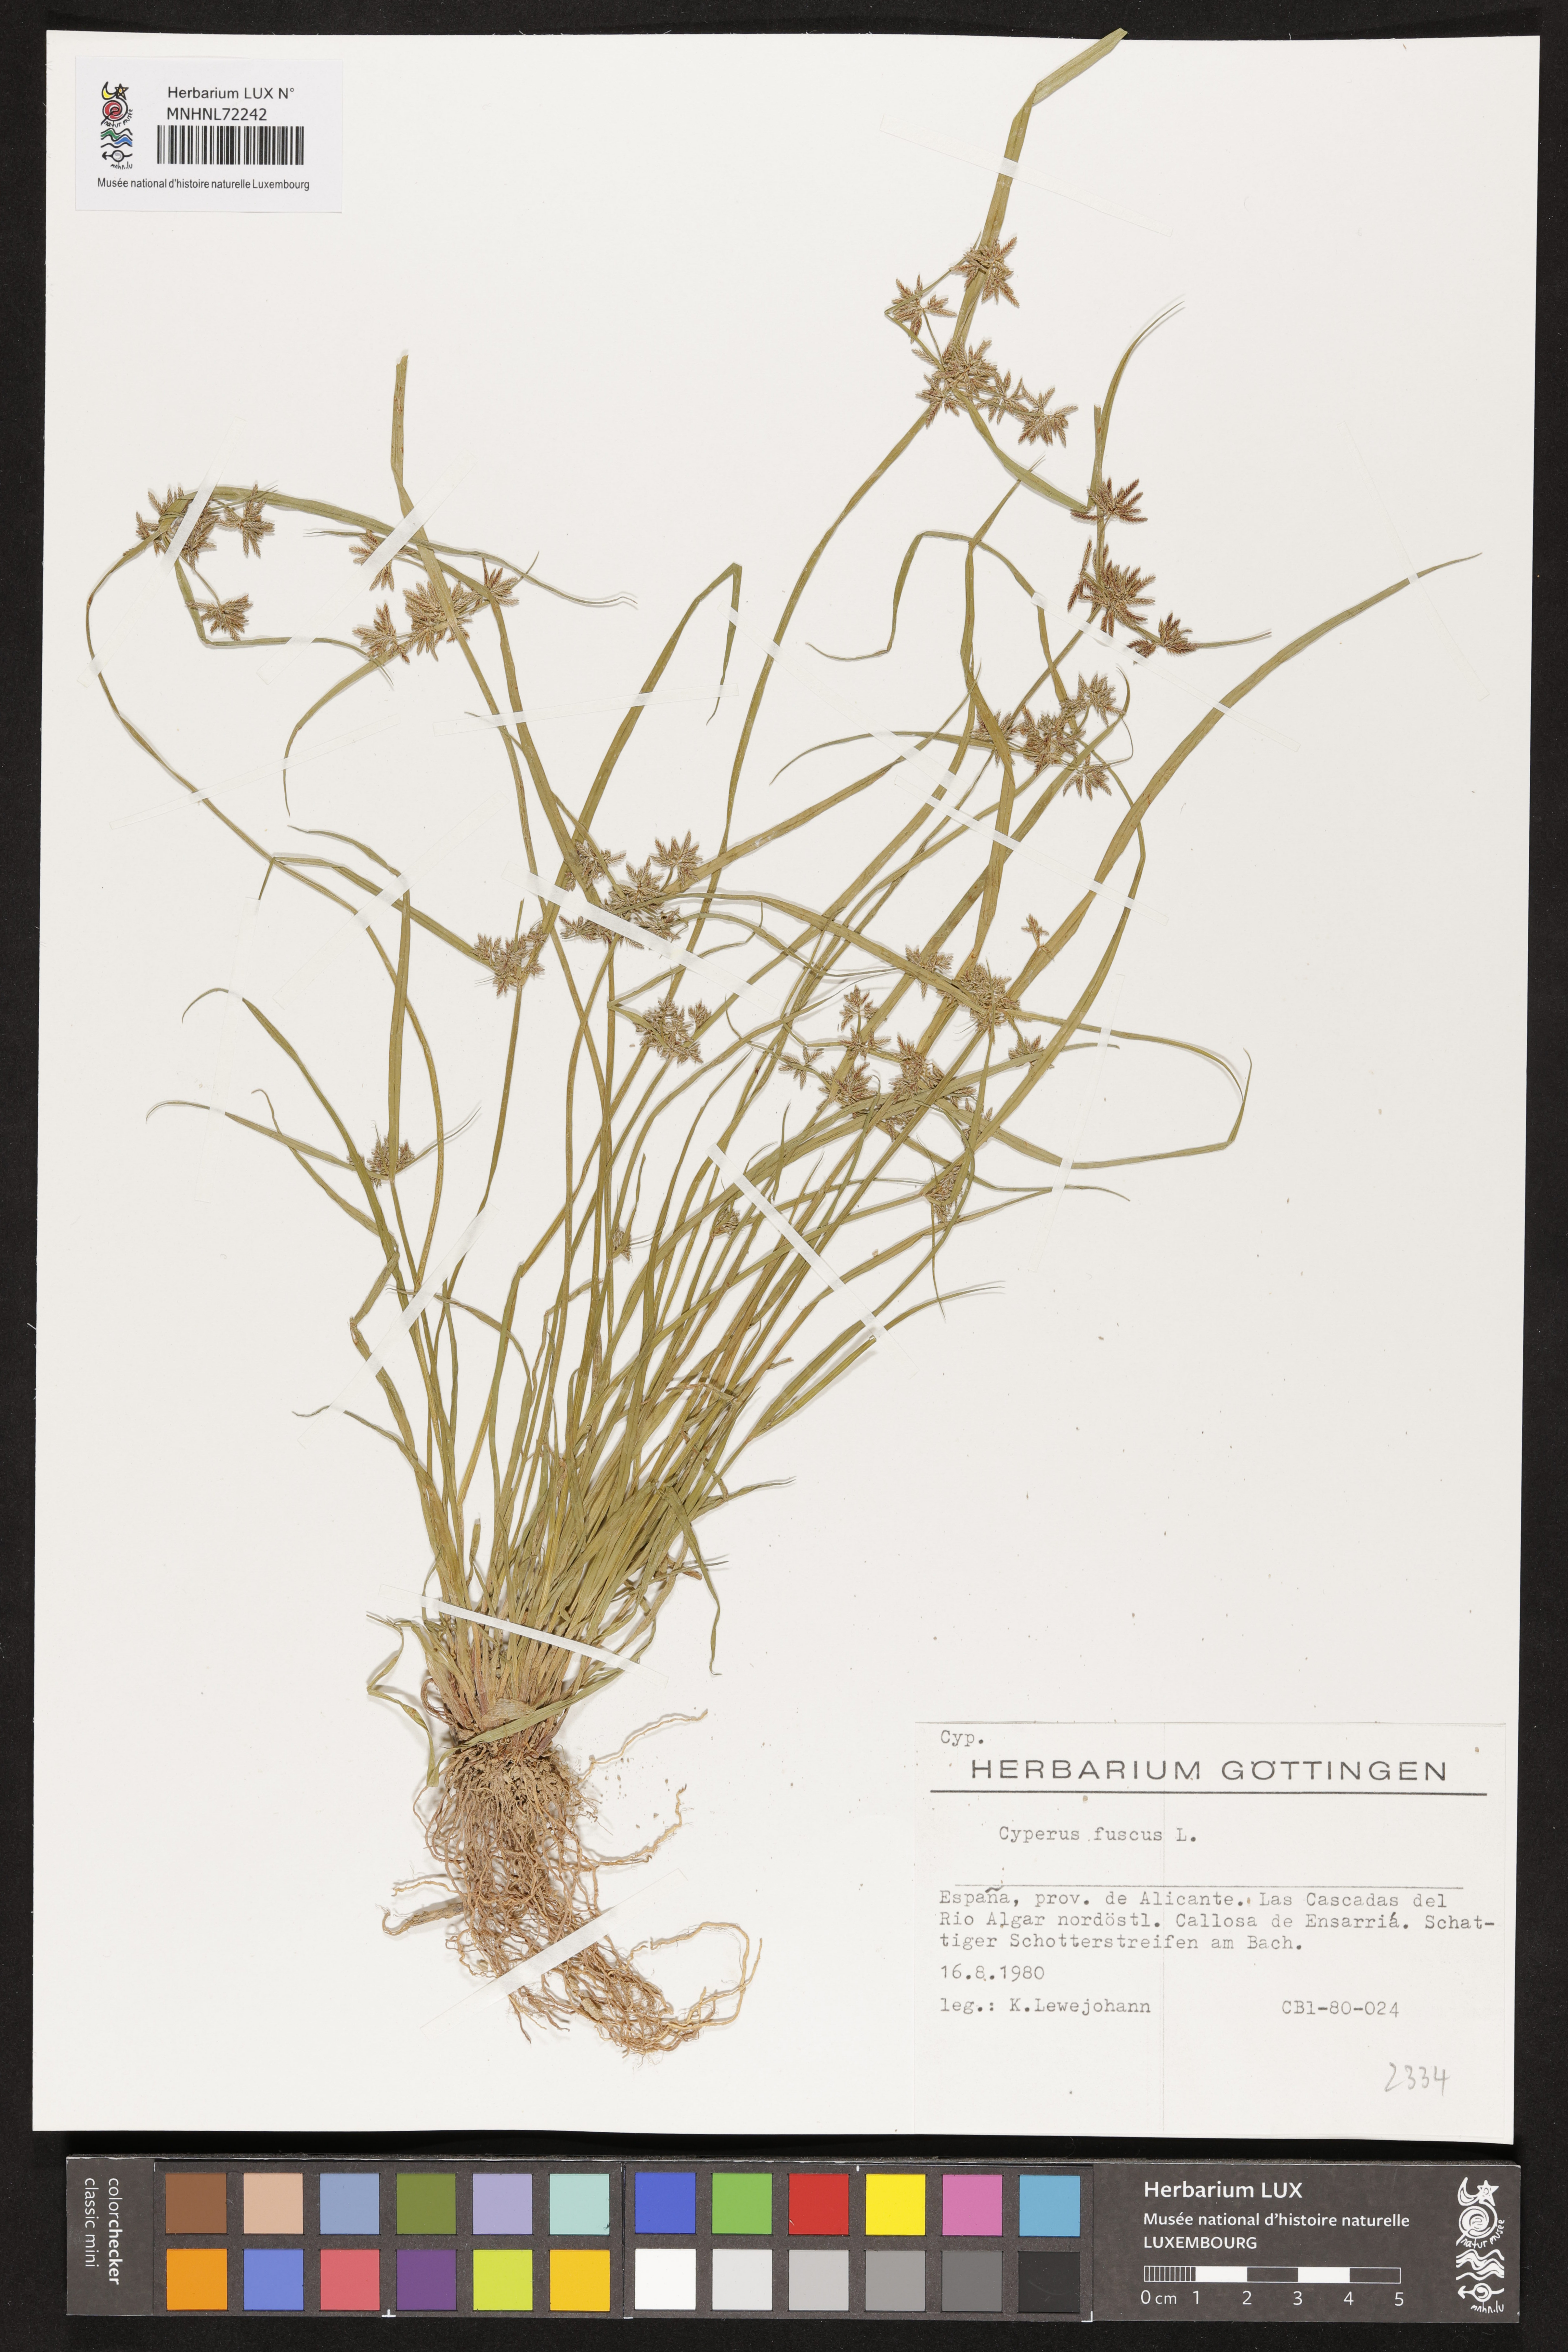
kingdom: Plantae
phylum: Tracheophyta
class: Liliopsida
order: Poales
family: Cyperaceae
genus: Cyperus
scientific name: Cyperus fuscus
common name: Brown galingale
